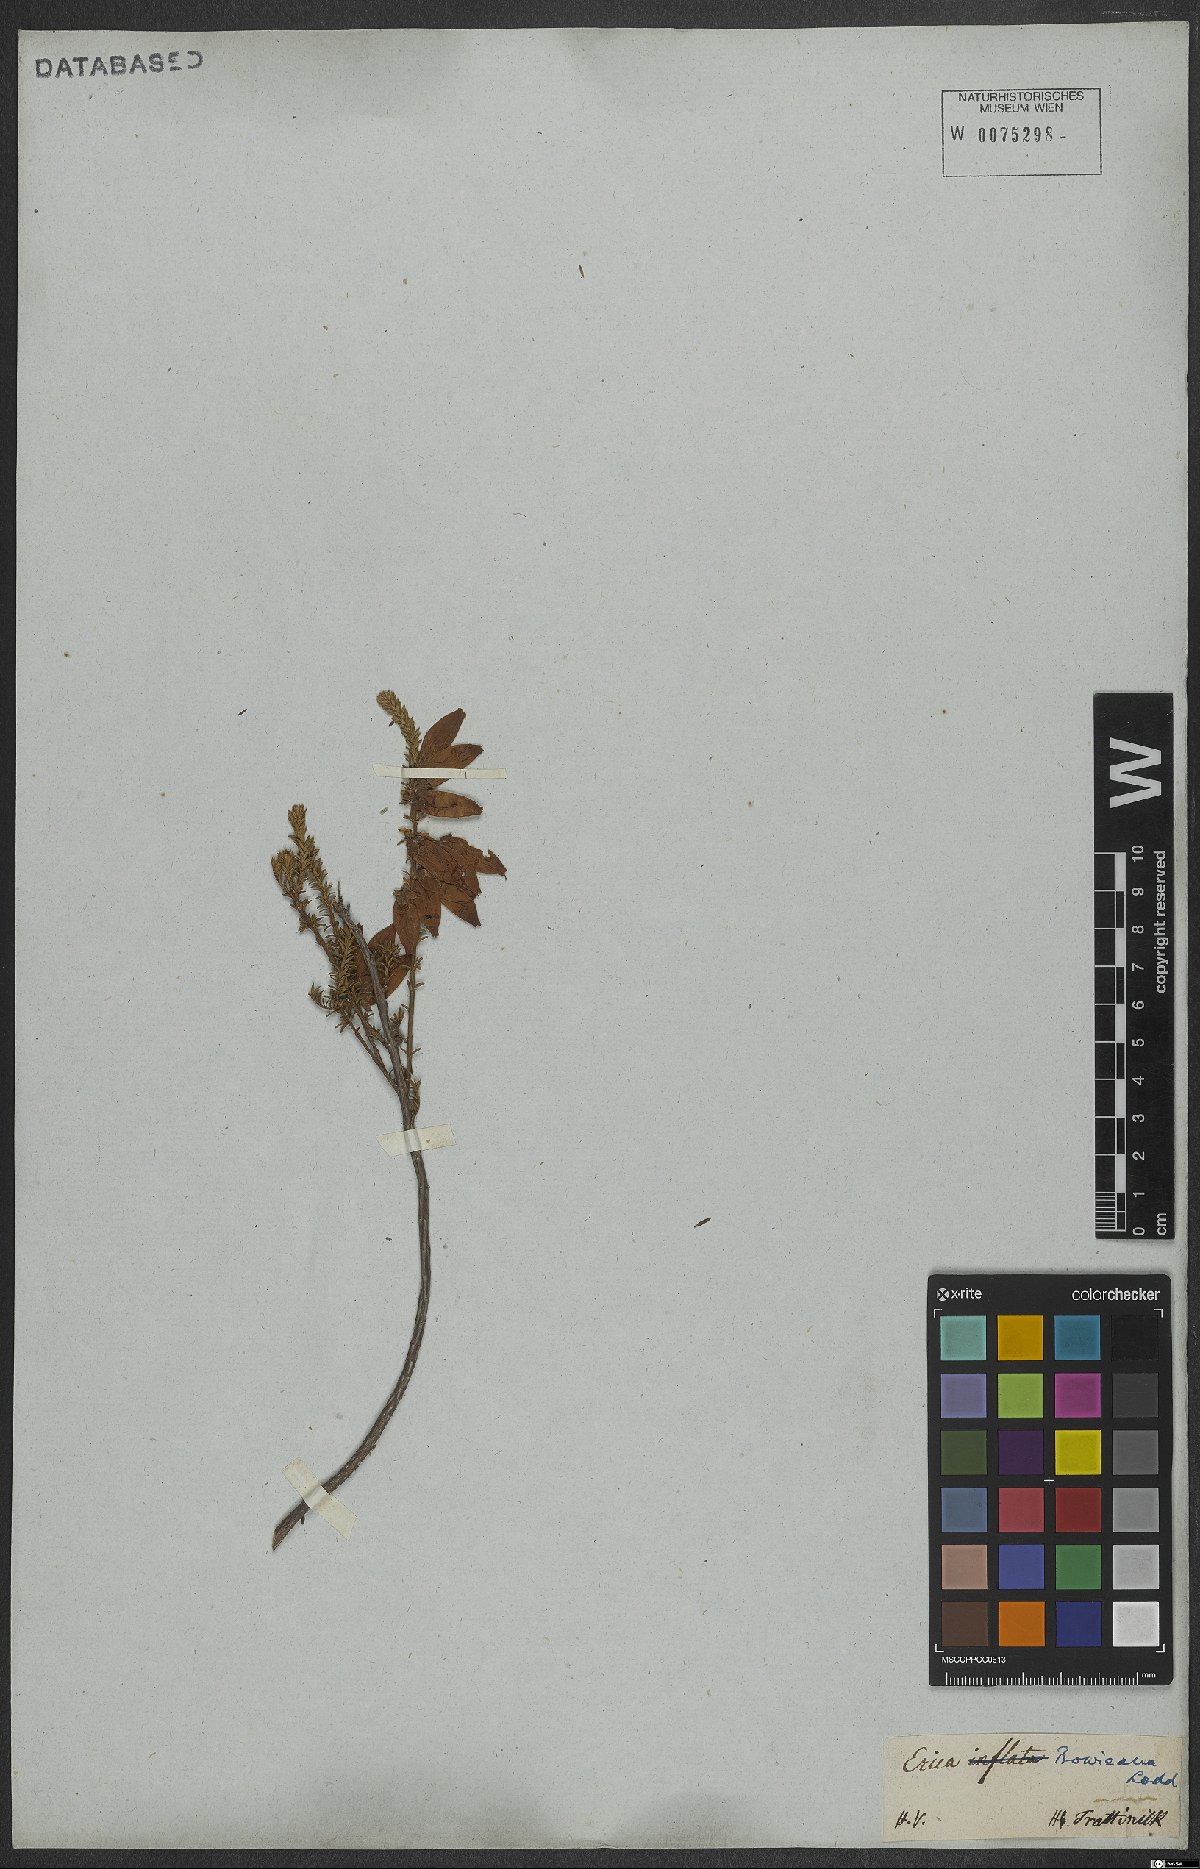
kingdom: Plantae
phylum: Tracheophyta
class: Magnoliopsida
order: Ericales
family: Ericaceae
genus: Erica
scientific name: Erica bauera
